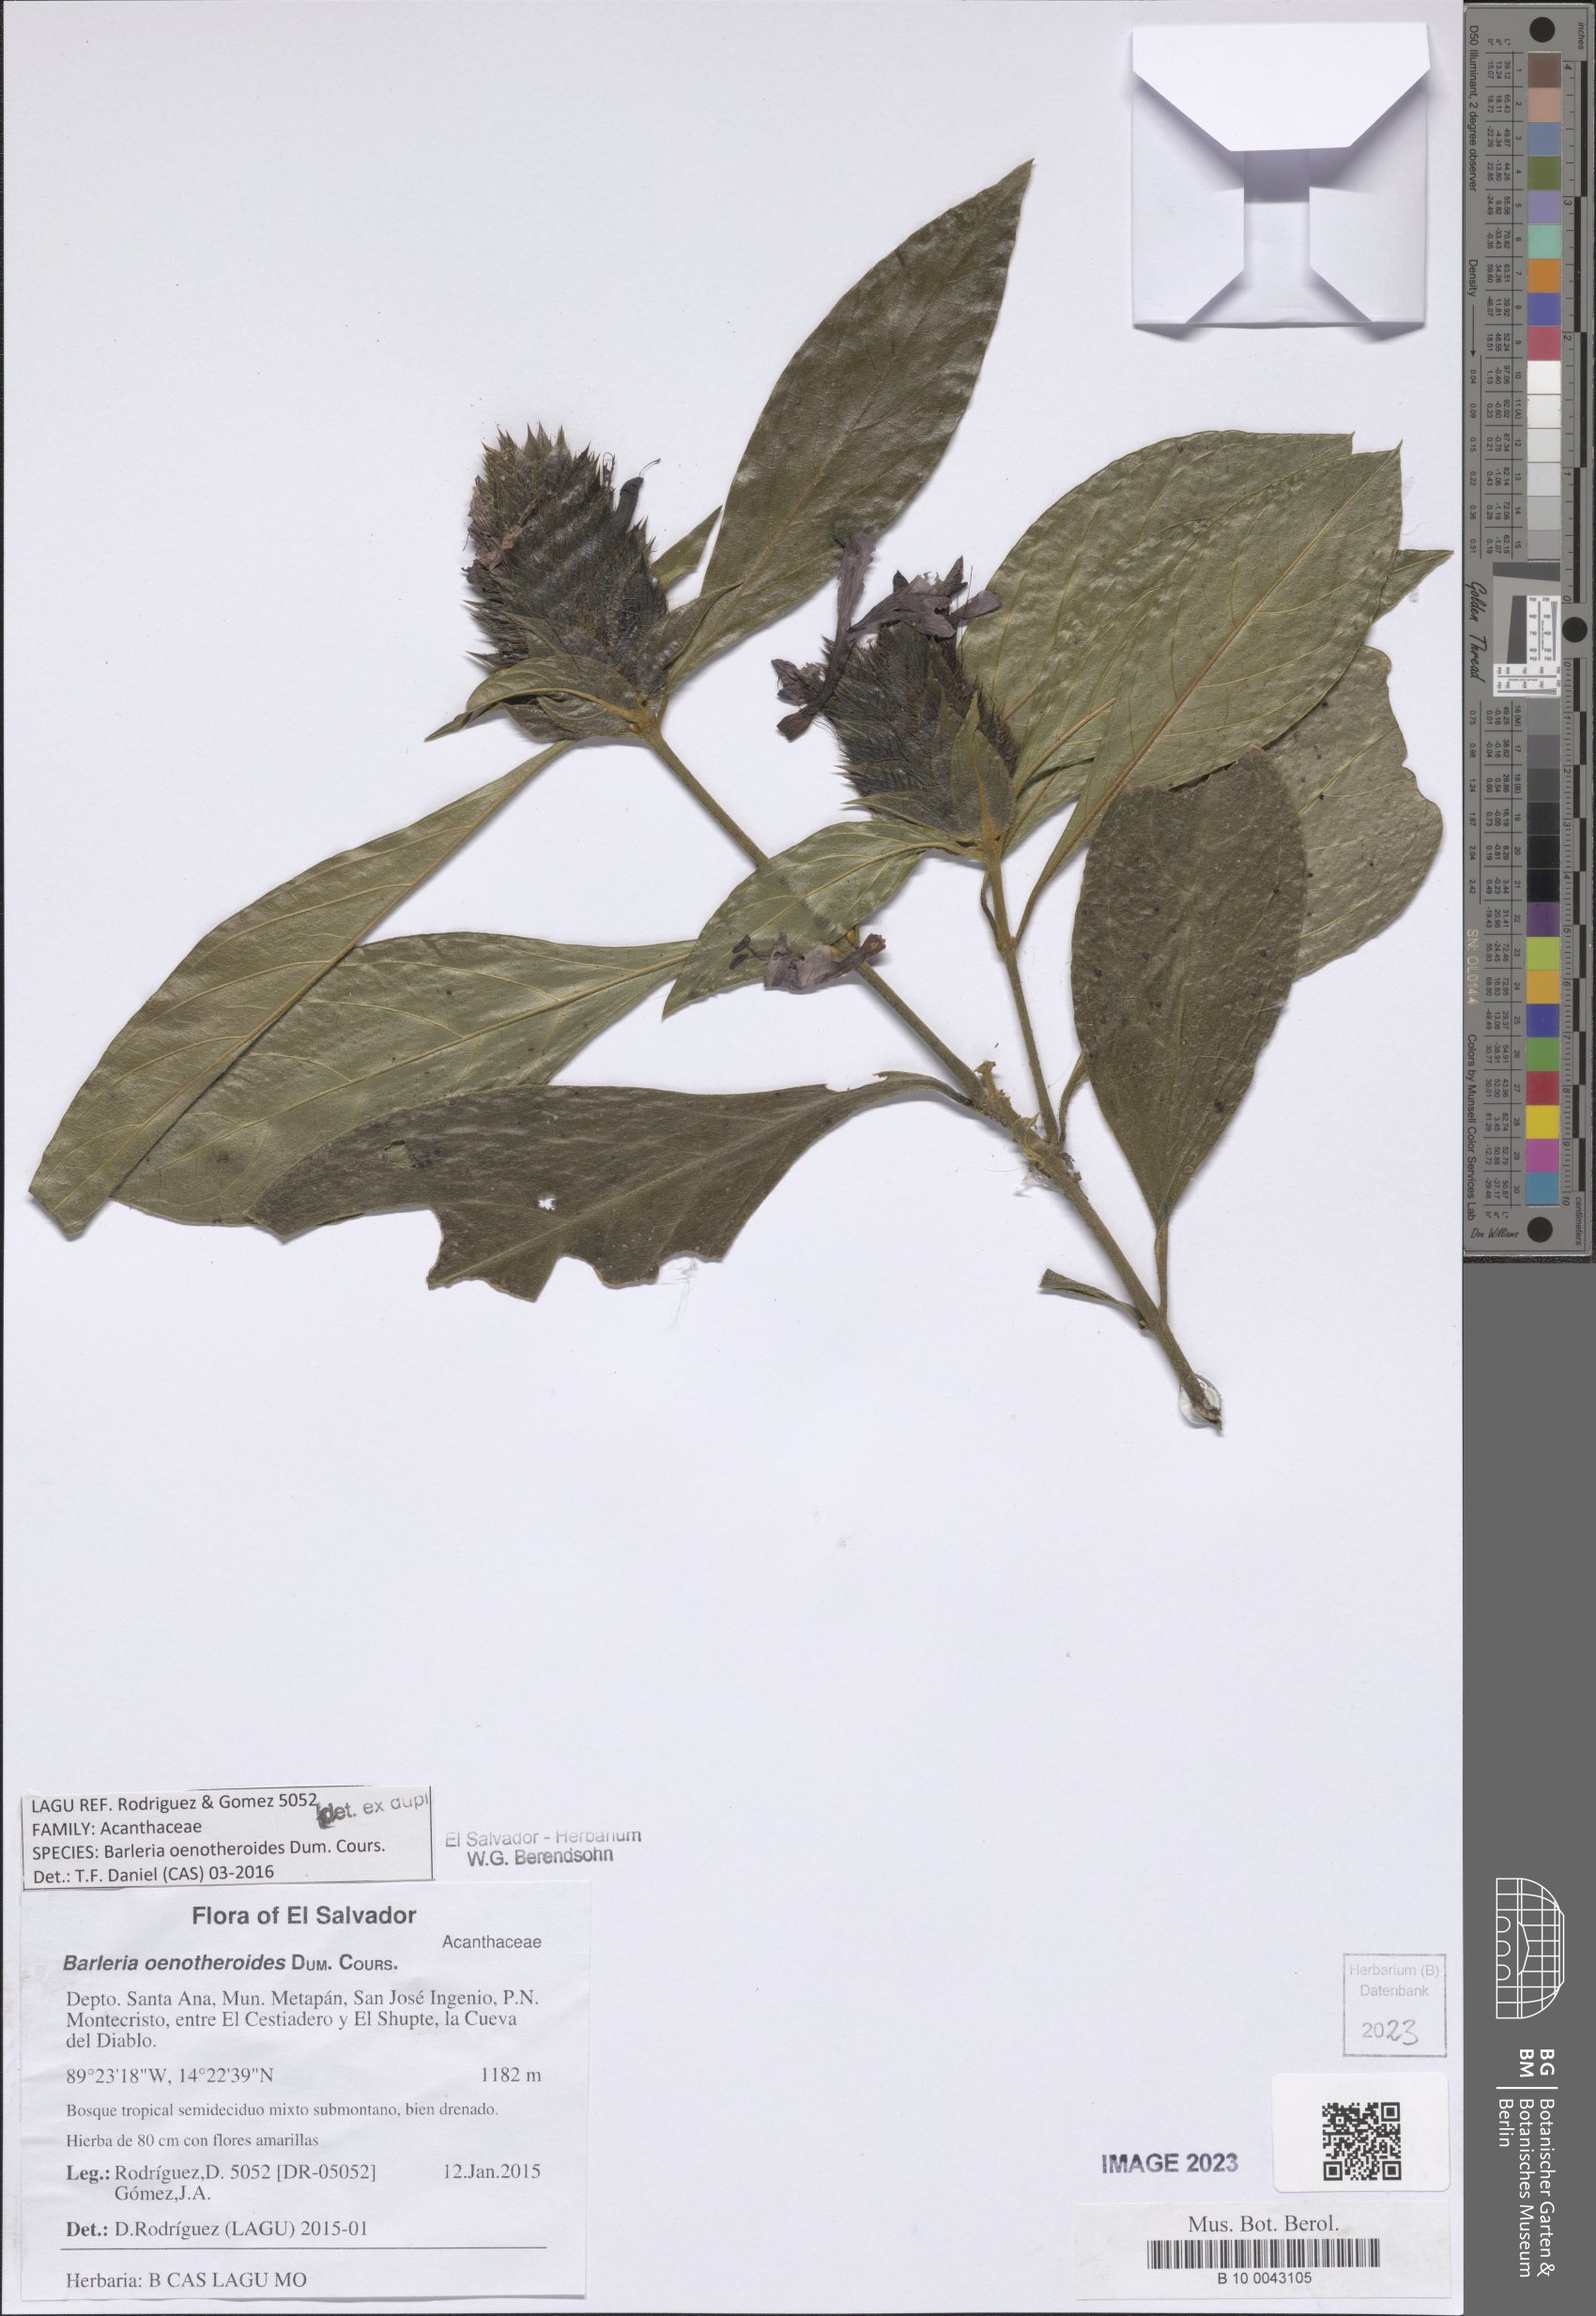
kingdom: Plantae
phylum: Tracheophyta
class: Magnoliopsida
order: Lamiales
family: Acanthaceae
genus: Barleria
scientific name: Barleria oenotheroides
